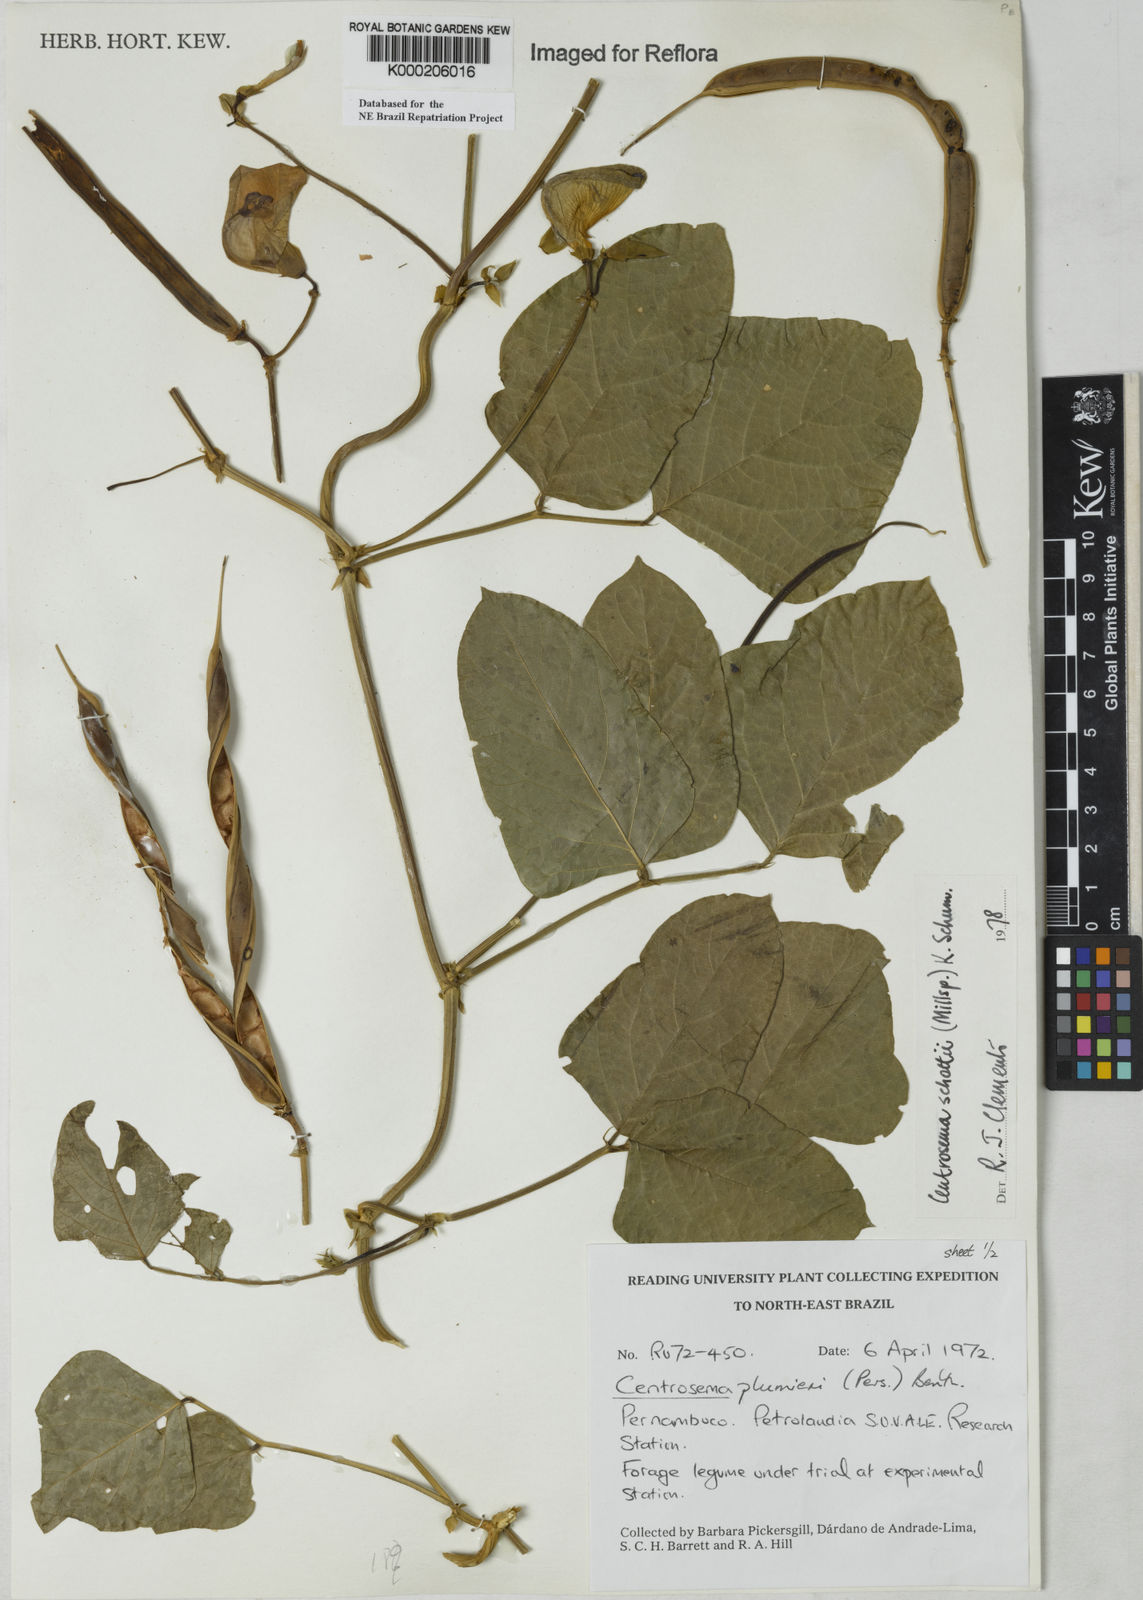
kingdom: Plantae
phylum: Tracheophyta
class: Magnoliopsida
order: Fabales
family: Fabaceae
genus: Centrosema
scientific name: Centrosema schottii
